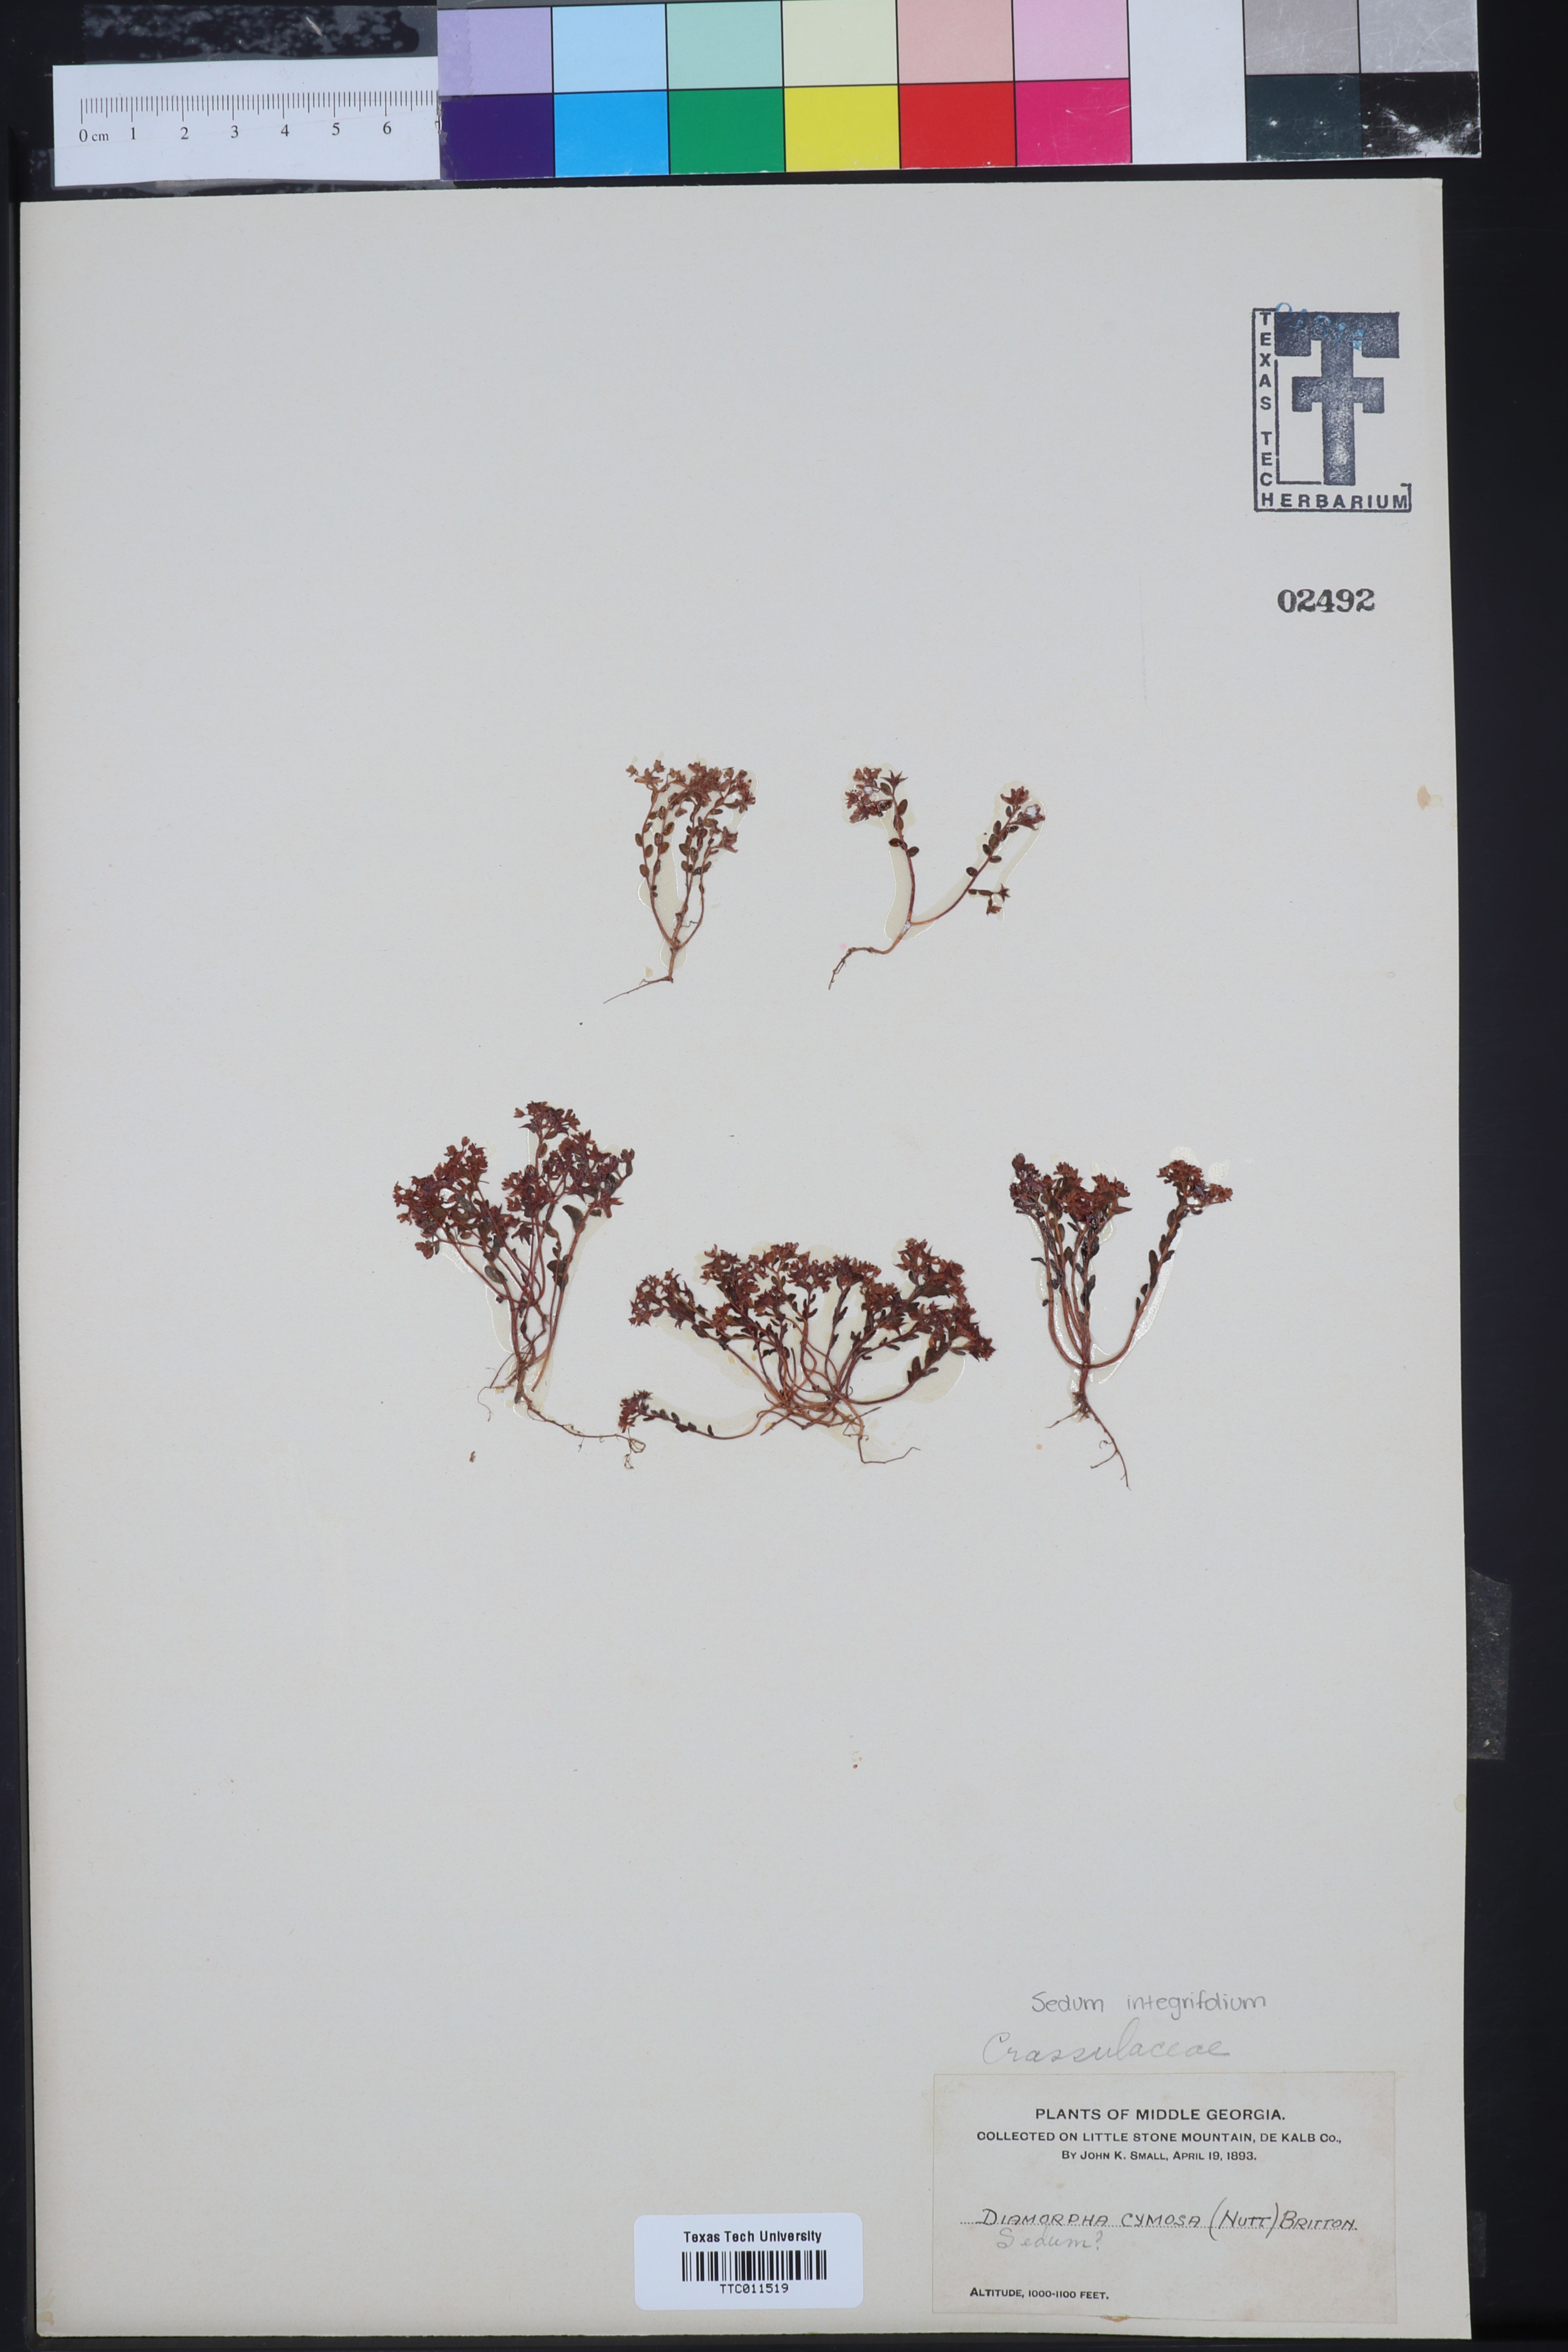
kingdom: Plantae
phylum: Tracheophyta
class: Magnoliopsida
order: Saxifragales
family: Crassulaceae
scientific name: Crassulaceae
